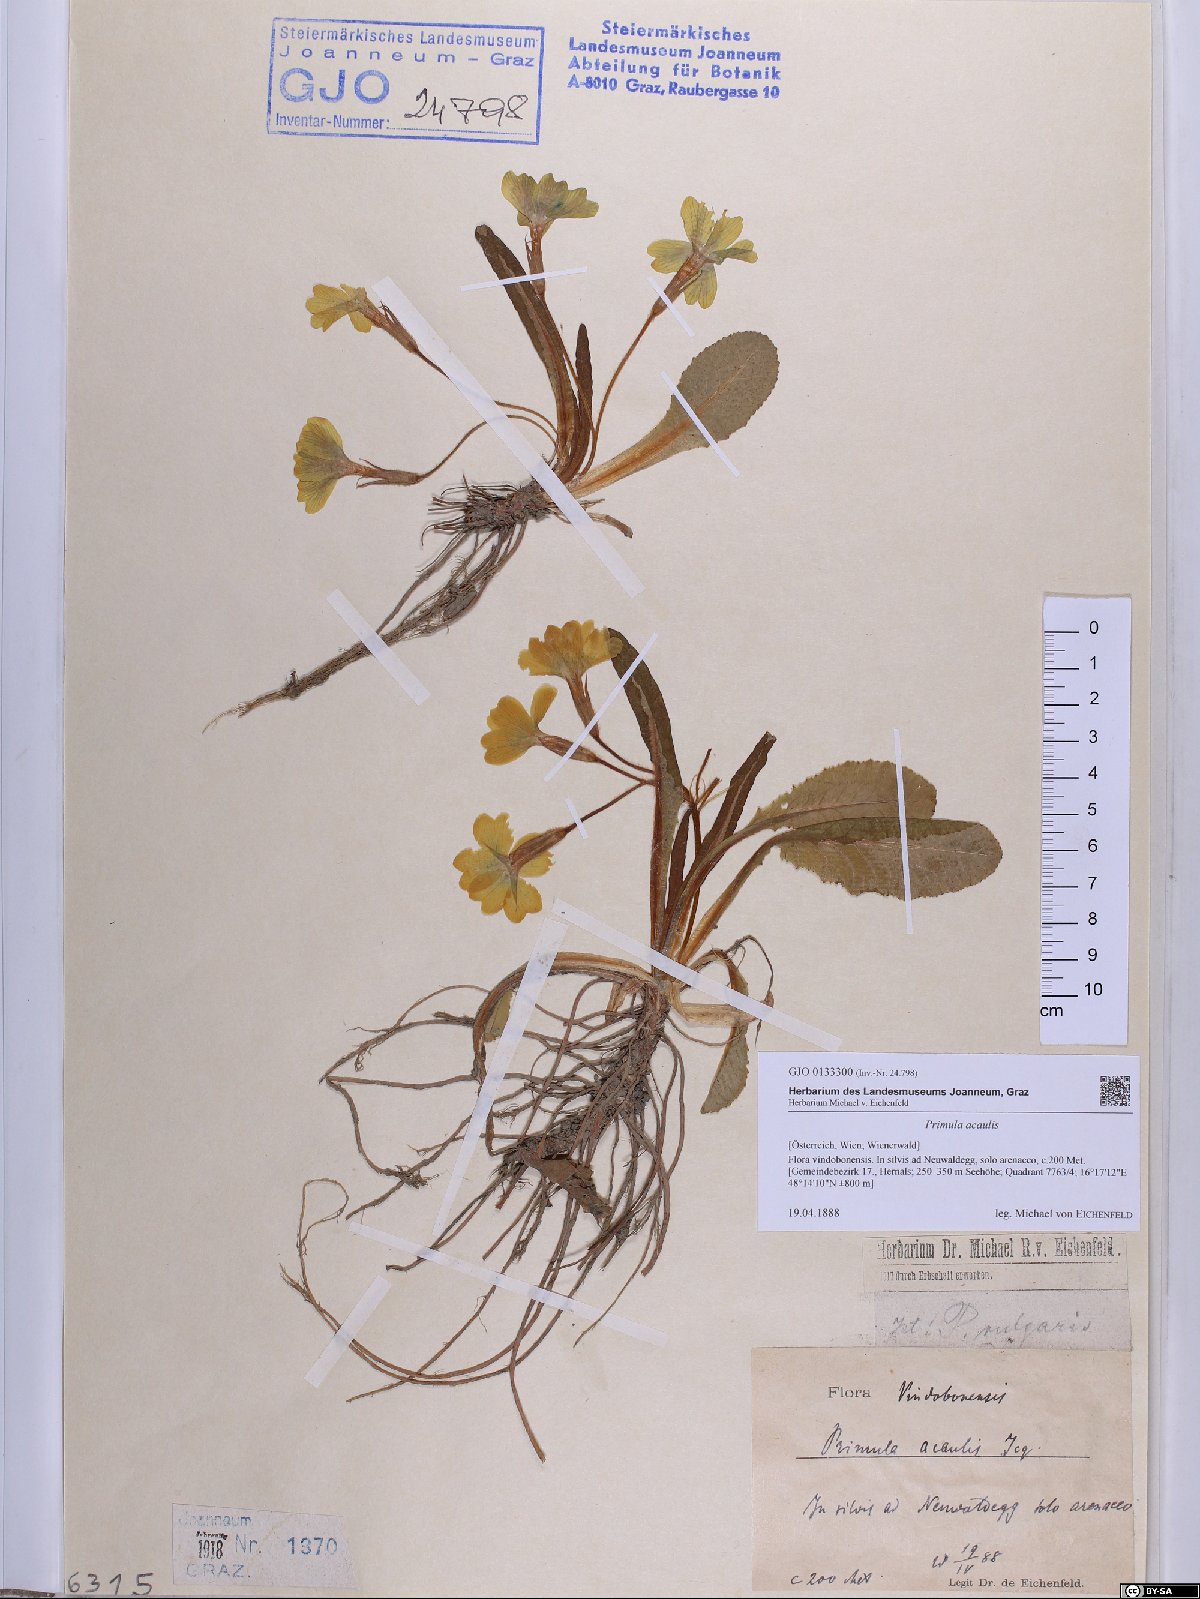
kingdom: Plantae
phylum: Tracheophyta
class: Magnoliopsida
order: Ericales
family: Primulaceae
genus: Primula
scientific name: Primula vulgaris
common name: Primrose
